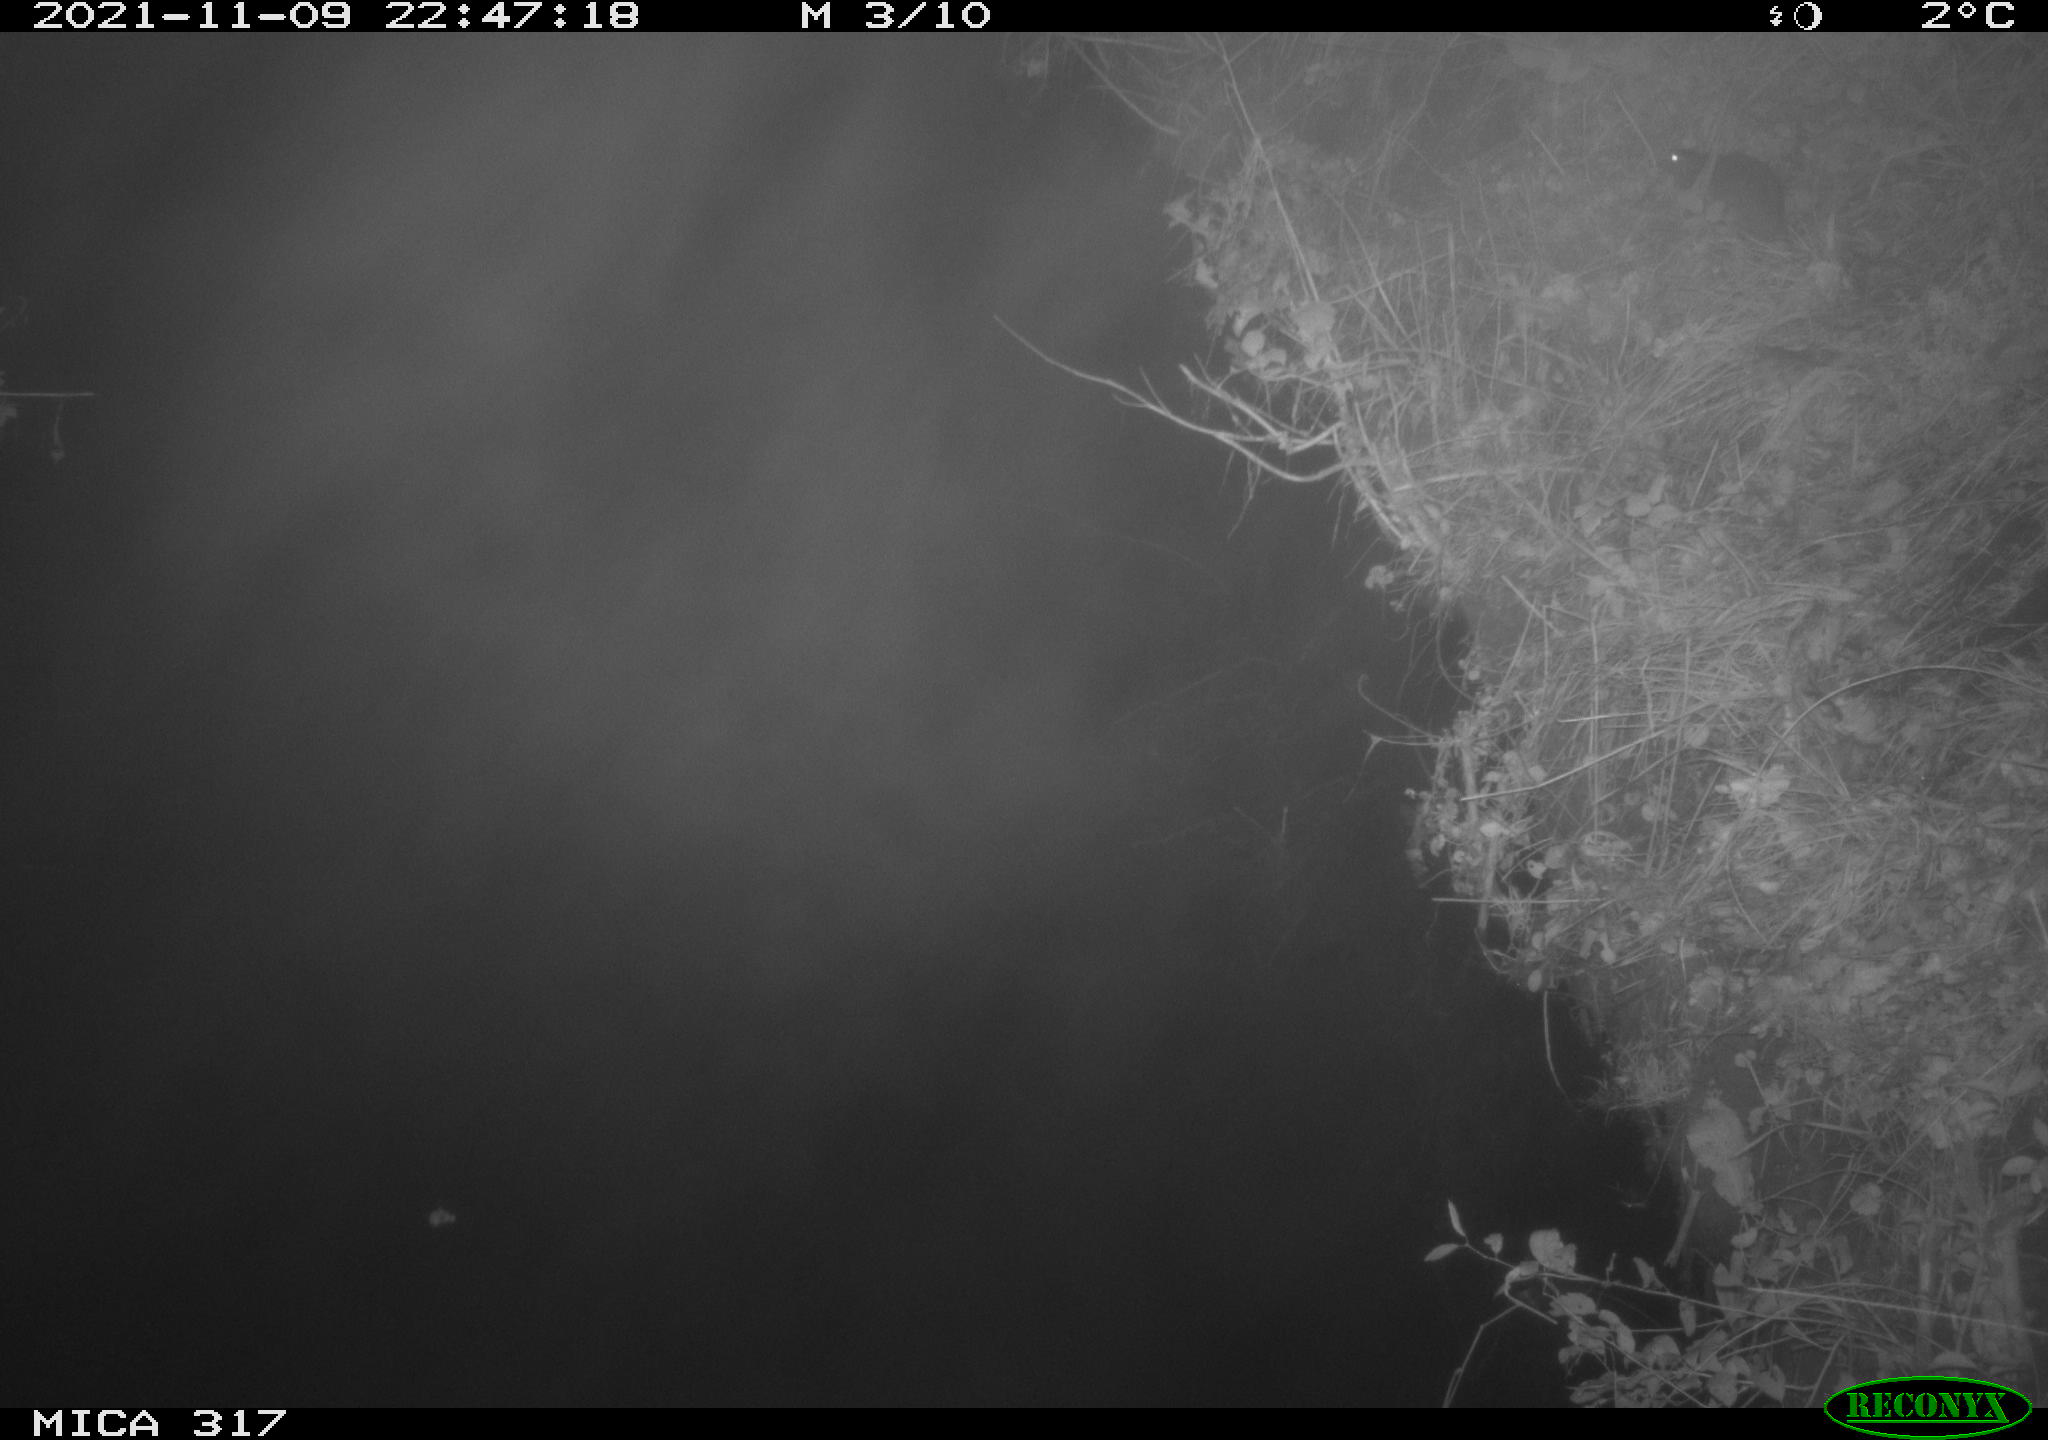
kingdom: Animalia
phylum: Chordata
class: Mammalia
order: Rodentia
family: Muridae
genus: Rattus
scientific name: Rattus norvegicus
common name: Brown rat
